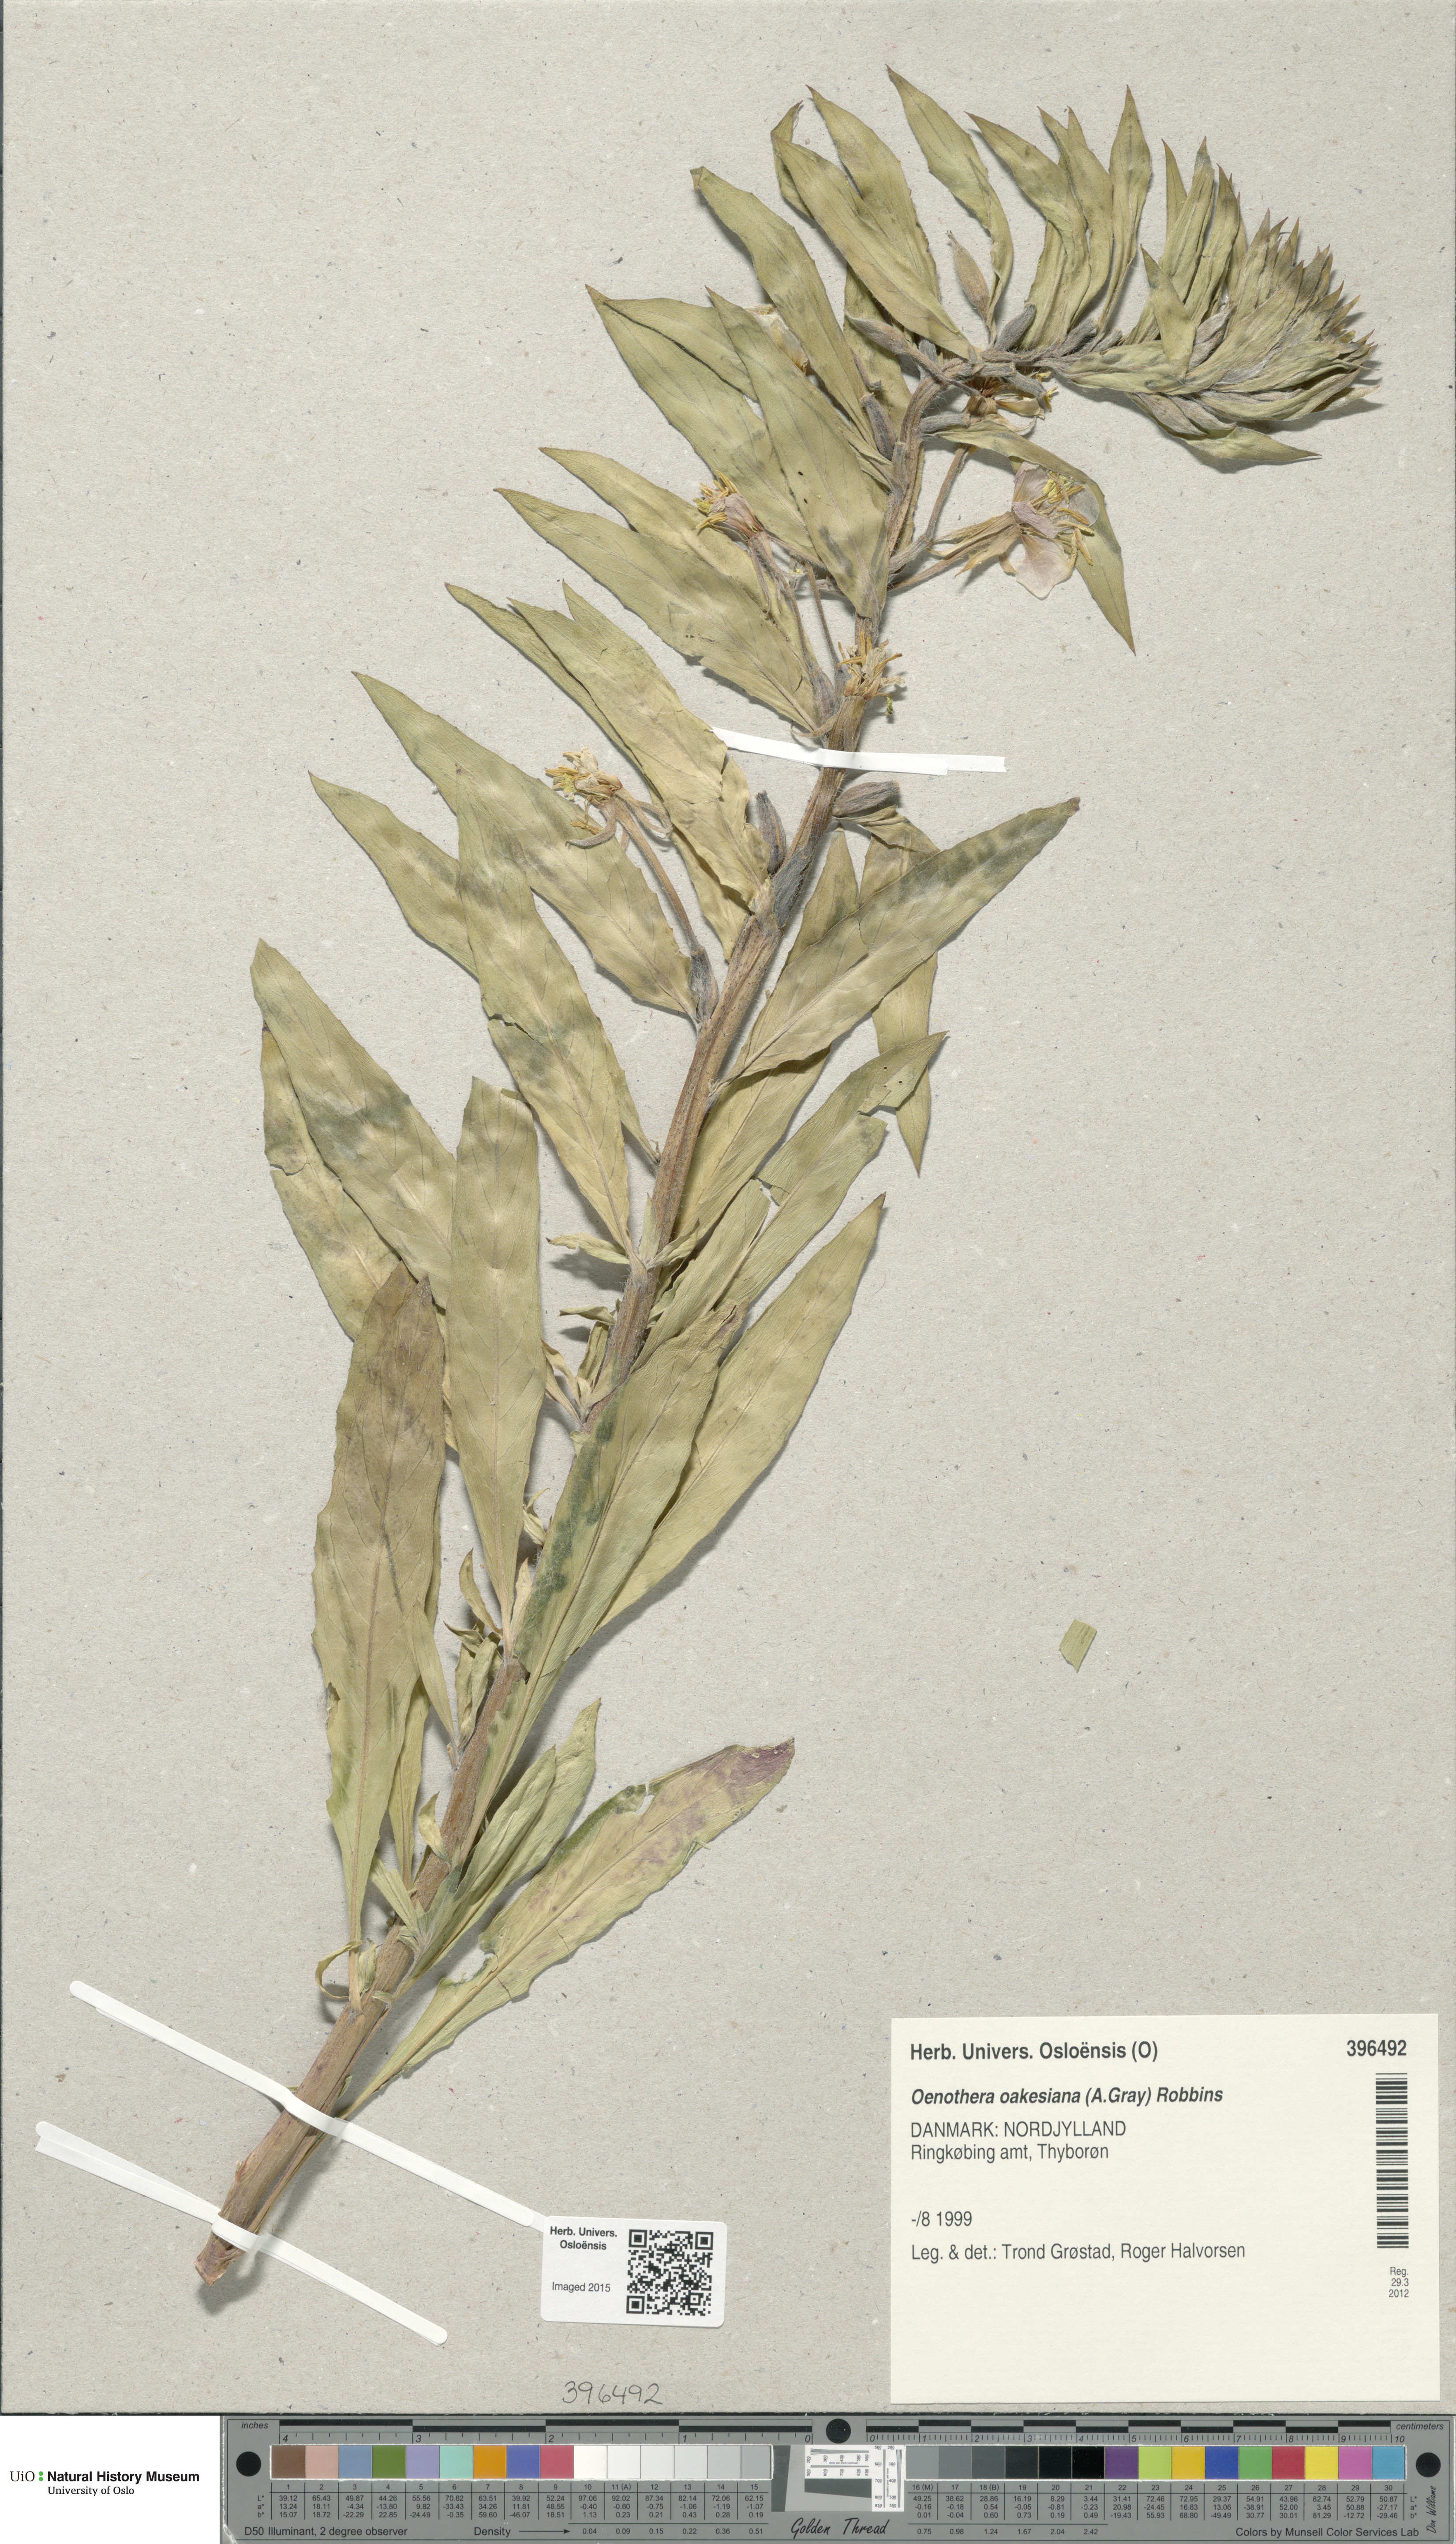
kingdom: Plantae
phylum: Tracheophyta
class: Magnoliopsida
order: Myrtales
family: Onagraceae
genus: Oenothera
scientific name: Oenothera oakesiana
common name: Oakes' evening-primrose
